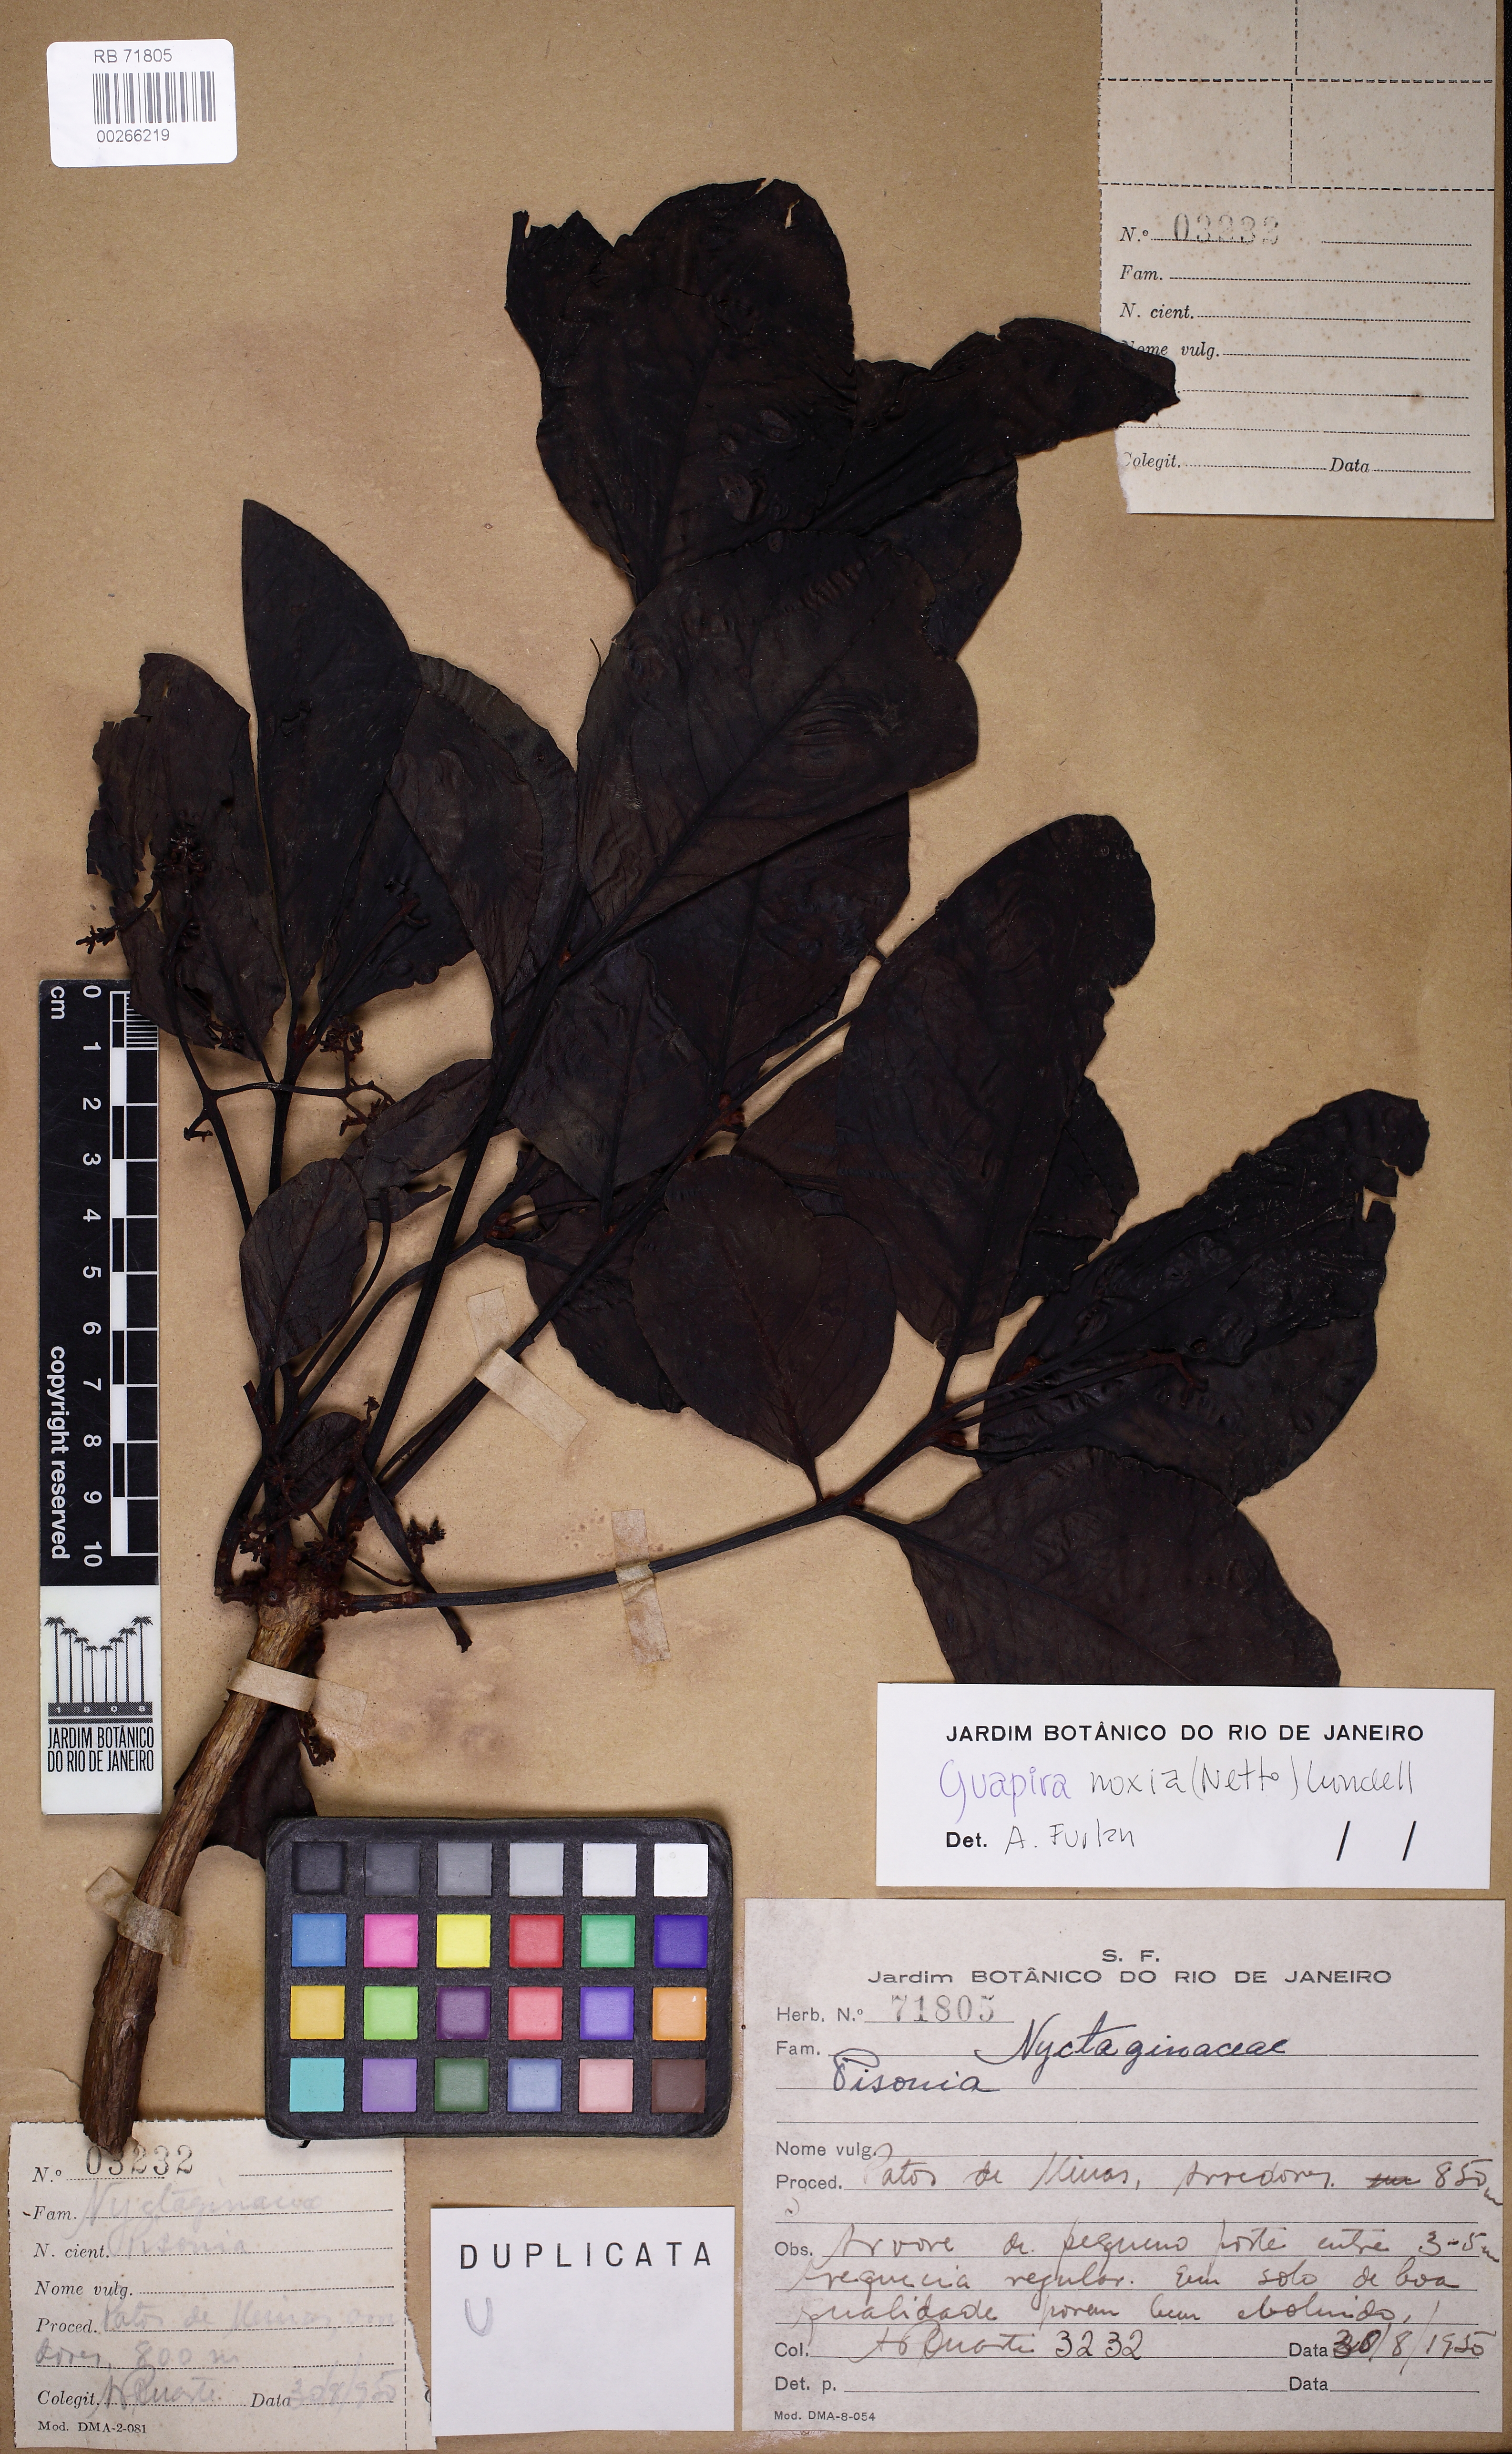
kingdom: Plantae
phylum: Tracheophyta
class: Magnoliopsida
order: Caryophyllales
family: Nyctaginaceae
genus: Guapira
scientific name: Guapira noxia
